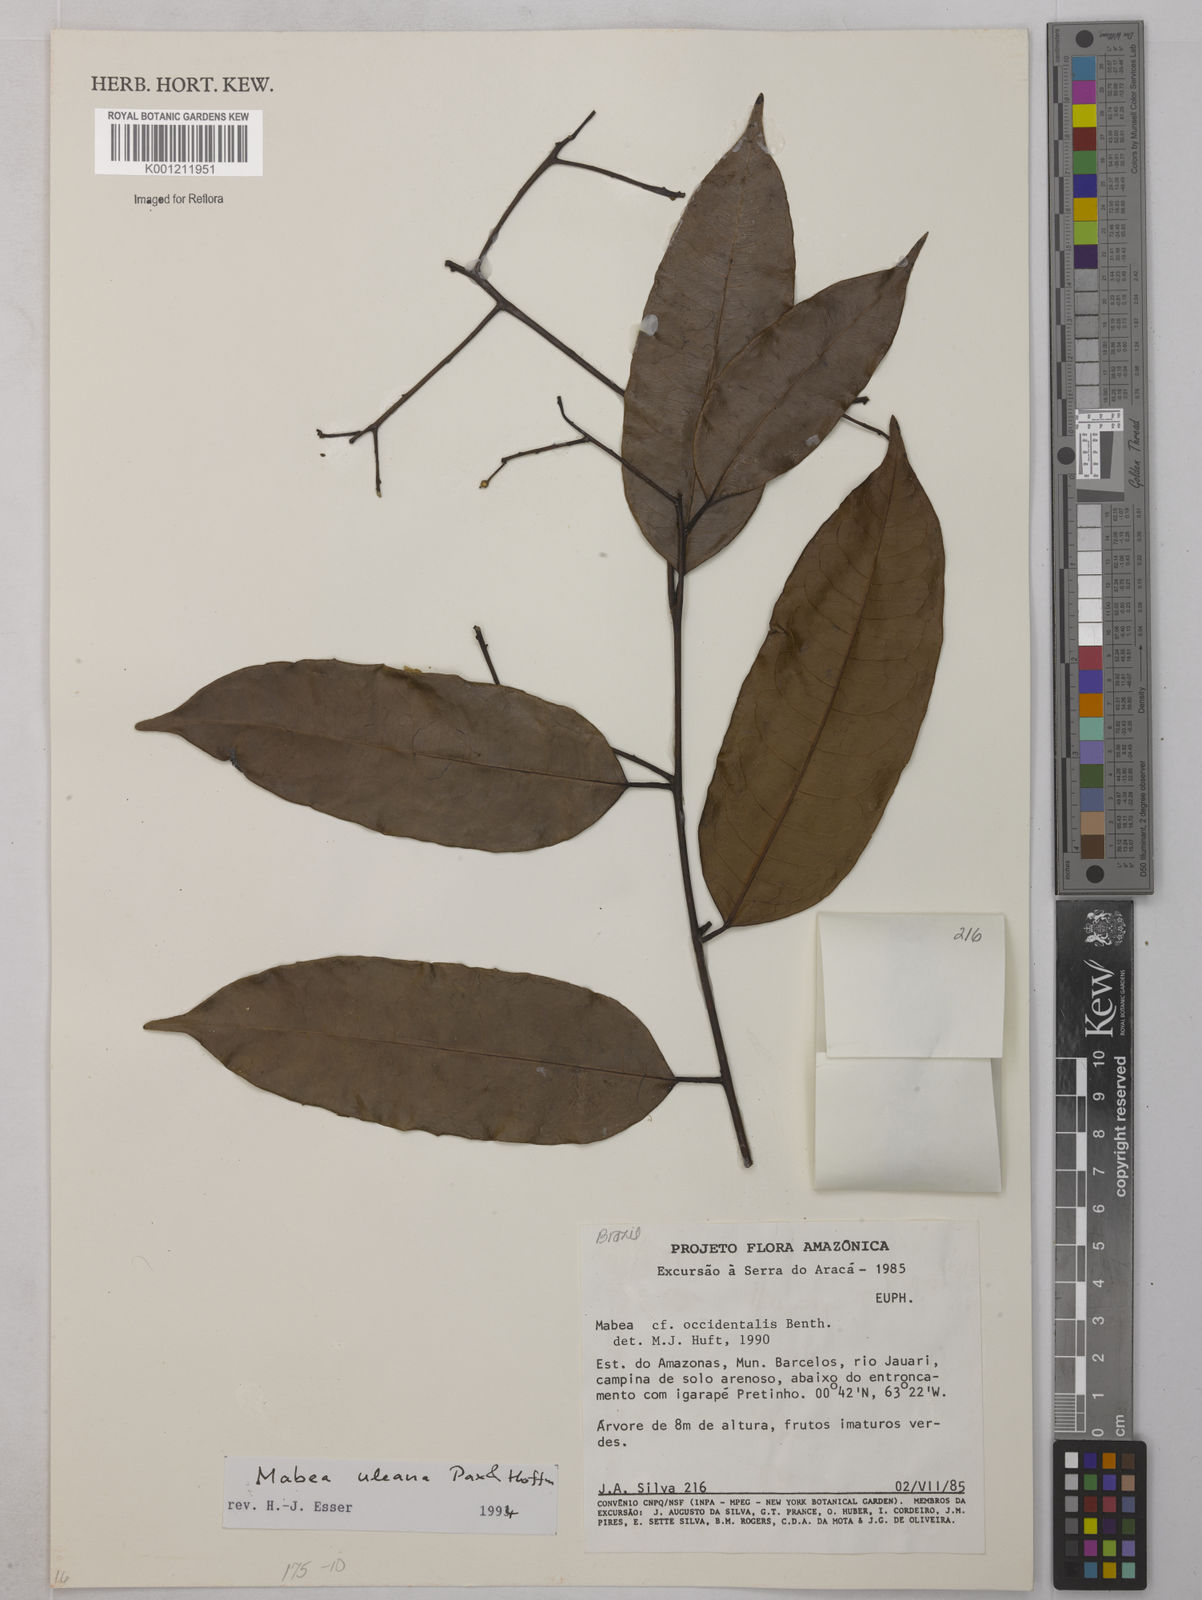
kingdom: Plantae
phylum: Tracheophyta
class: Magnoliopsida
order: Malpighiales
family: Euphorbiaceae
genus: Mabea
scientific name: Mabea uleana
